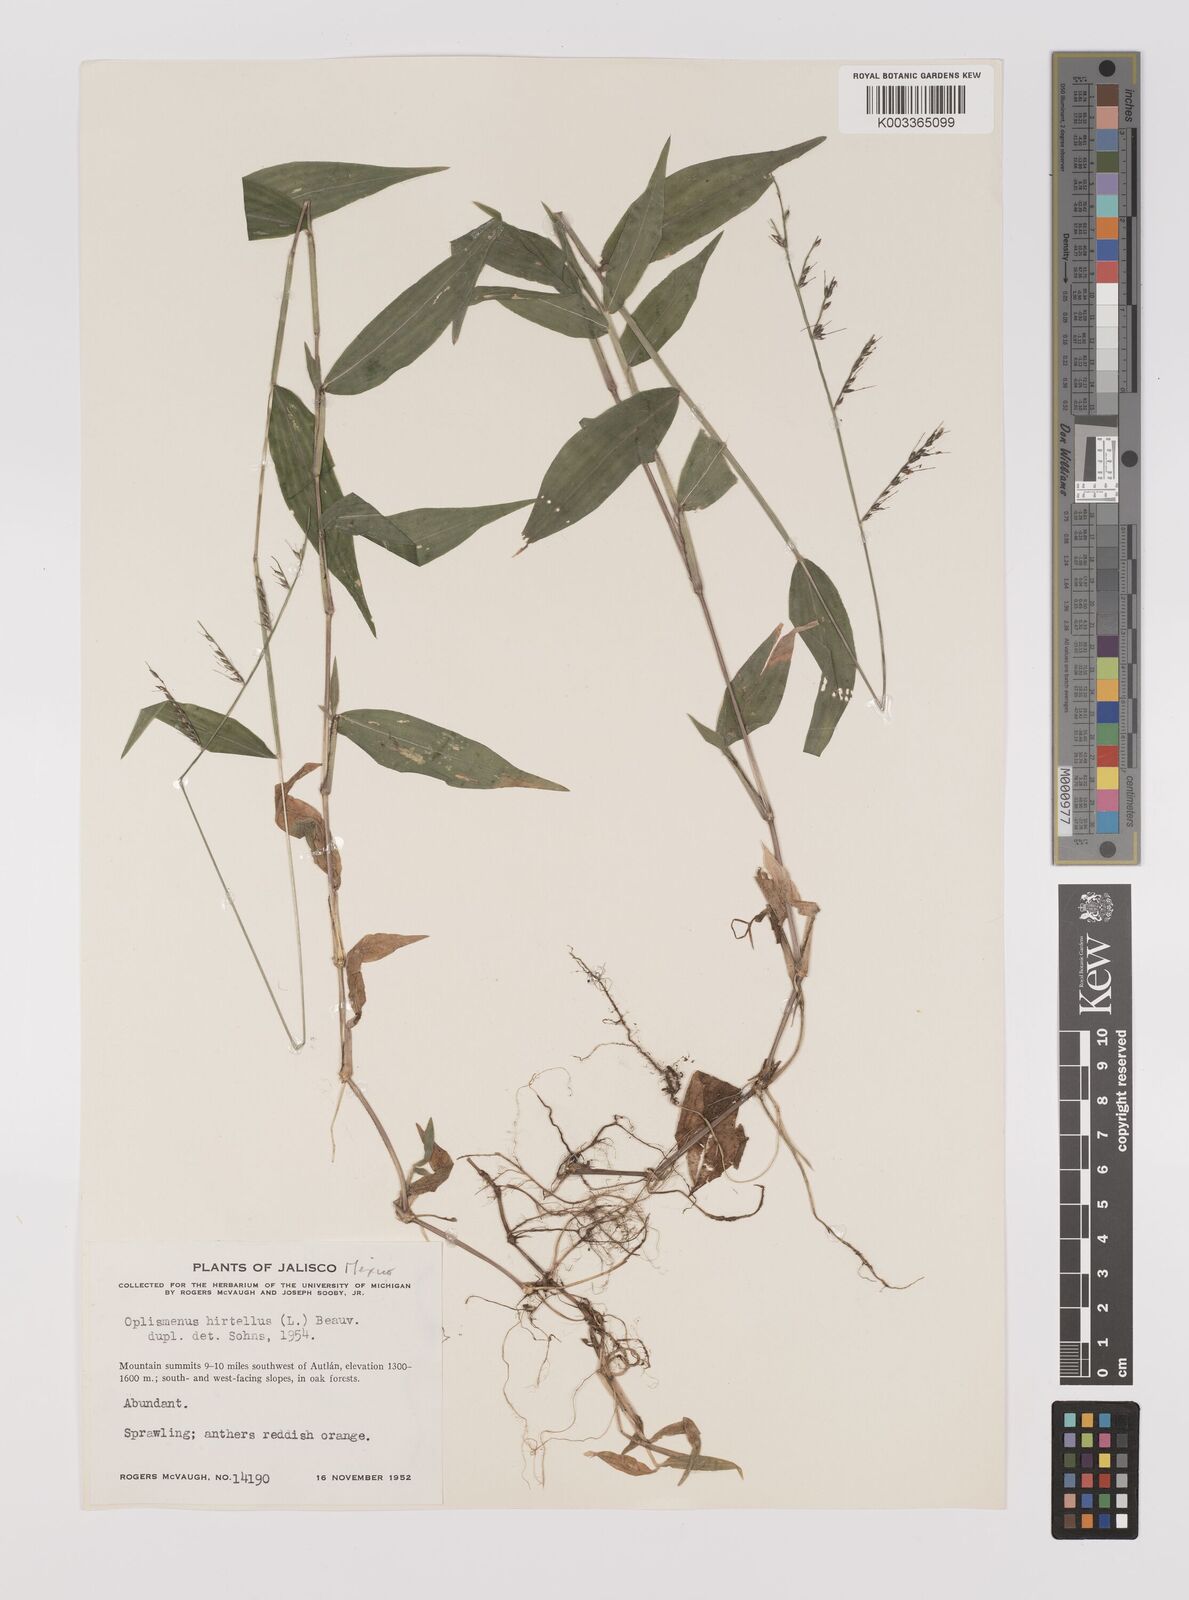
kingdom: Plantae
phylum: Tracheophyta
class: Liliopsida
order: Poales
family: Poaceae
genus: Oplismenus
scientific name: Oplismenus compositus
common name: Running mountain grass
